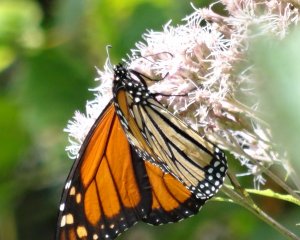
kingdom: Animalia
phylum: Arthropoda
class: Insecta
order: Lepidoptera
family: Nymphalidae
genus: Danaus
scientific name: Danaus plexippus
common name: Monarch
